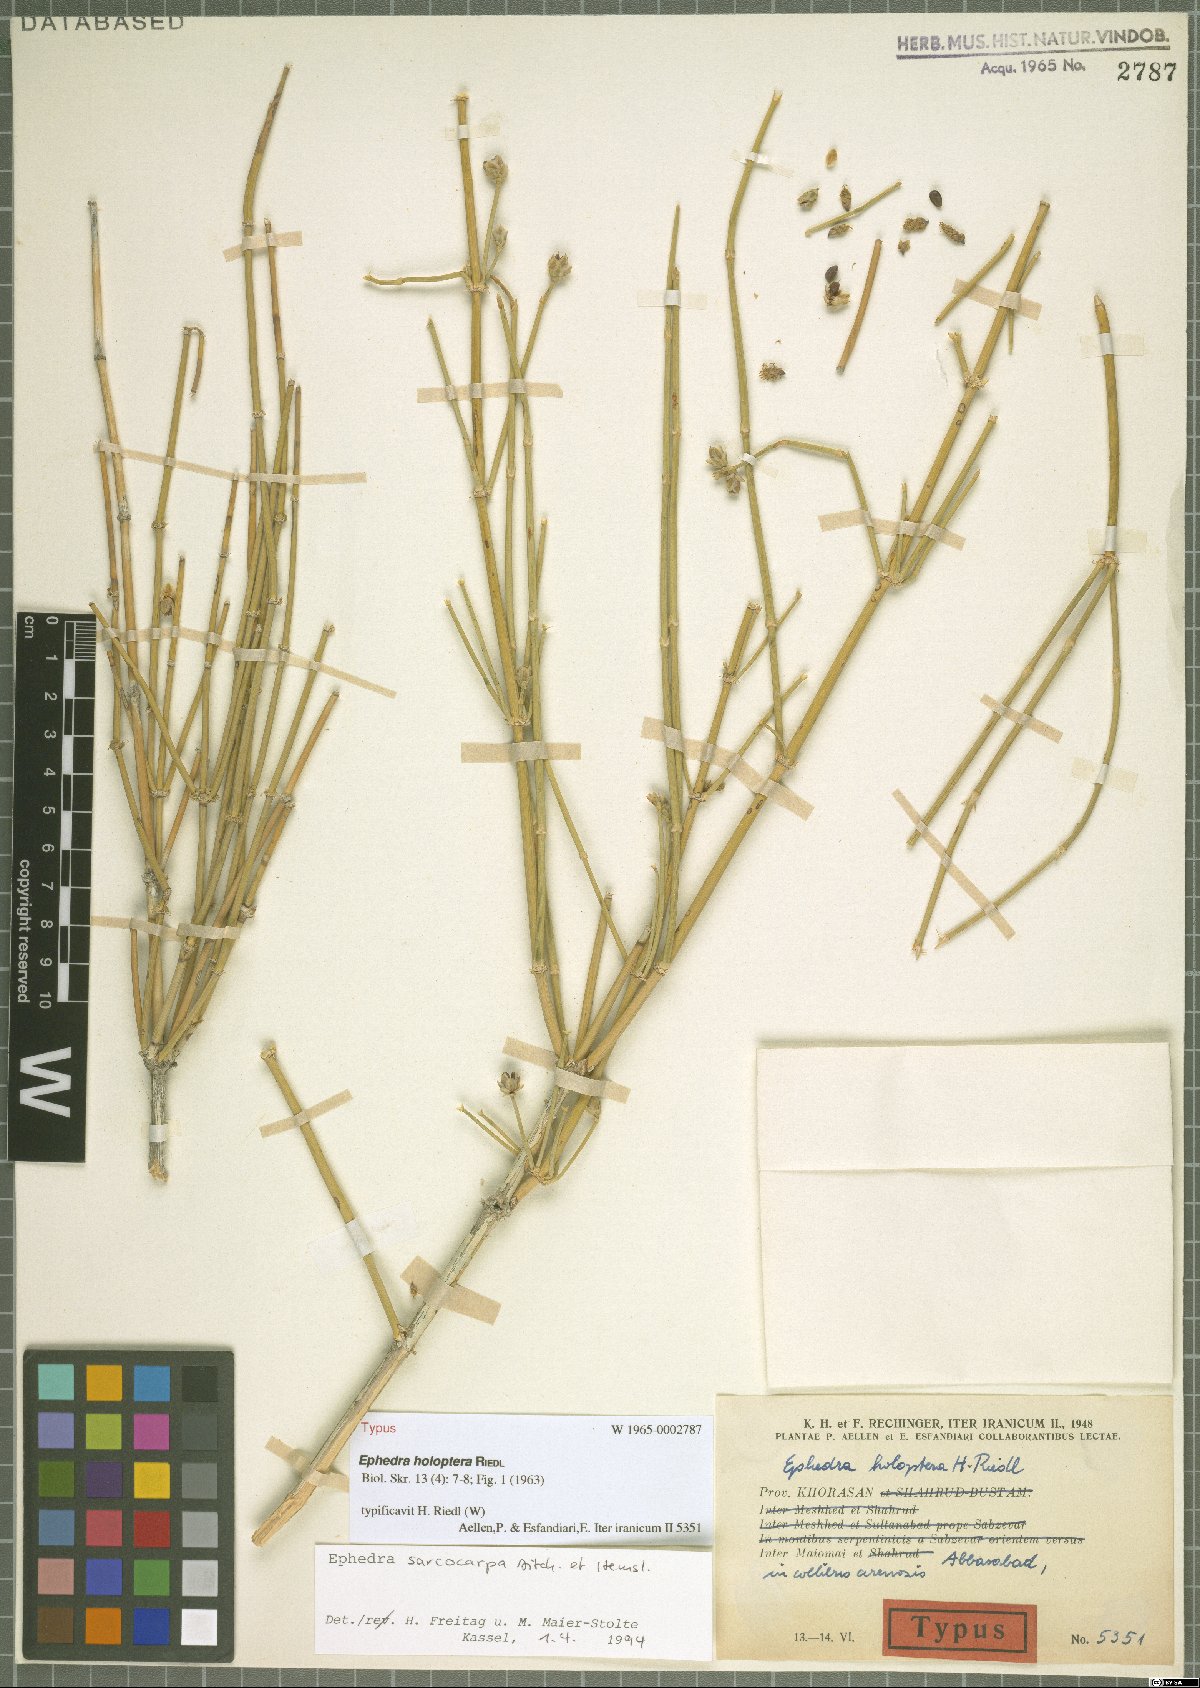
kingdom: Plantae
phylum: Tracheophyta
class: Gnetopsida
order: Ephedrales
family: Ephedraceae
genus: Ephedra
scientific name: Ephedra sarcocarpa
